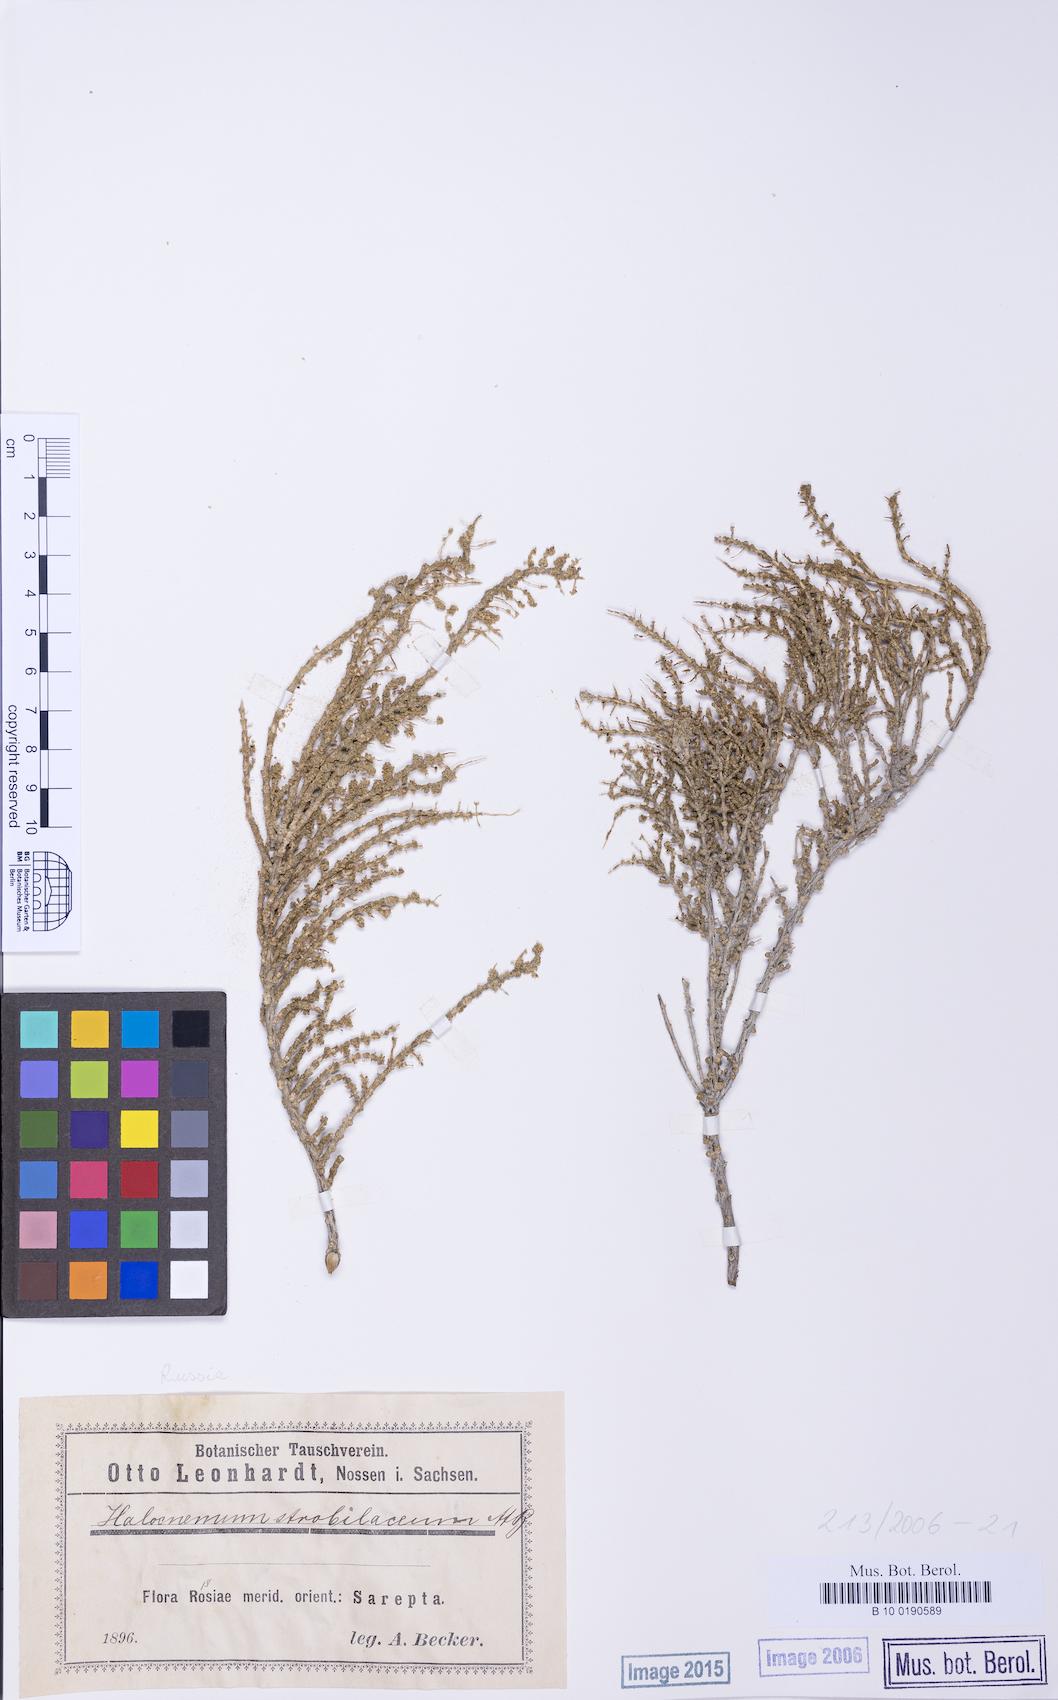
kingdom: Plantae
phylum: Tracheophyta
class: Magnoliopsida
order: Caryophyllales
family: Amaranthaceae
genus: Halocnemum
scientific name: Halocnemum strobilaceum
